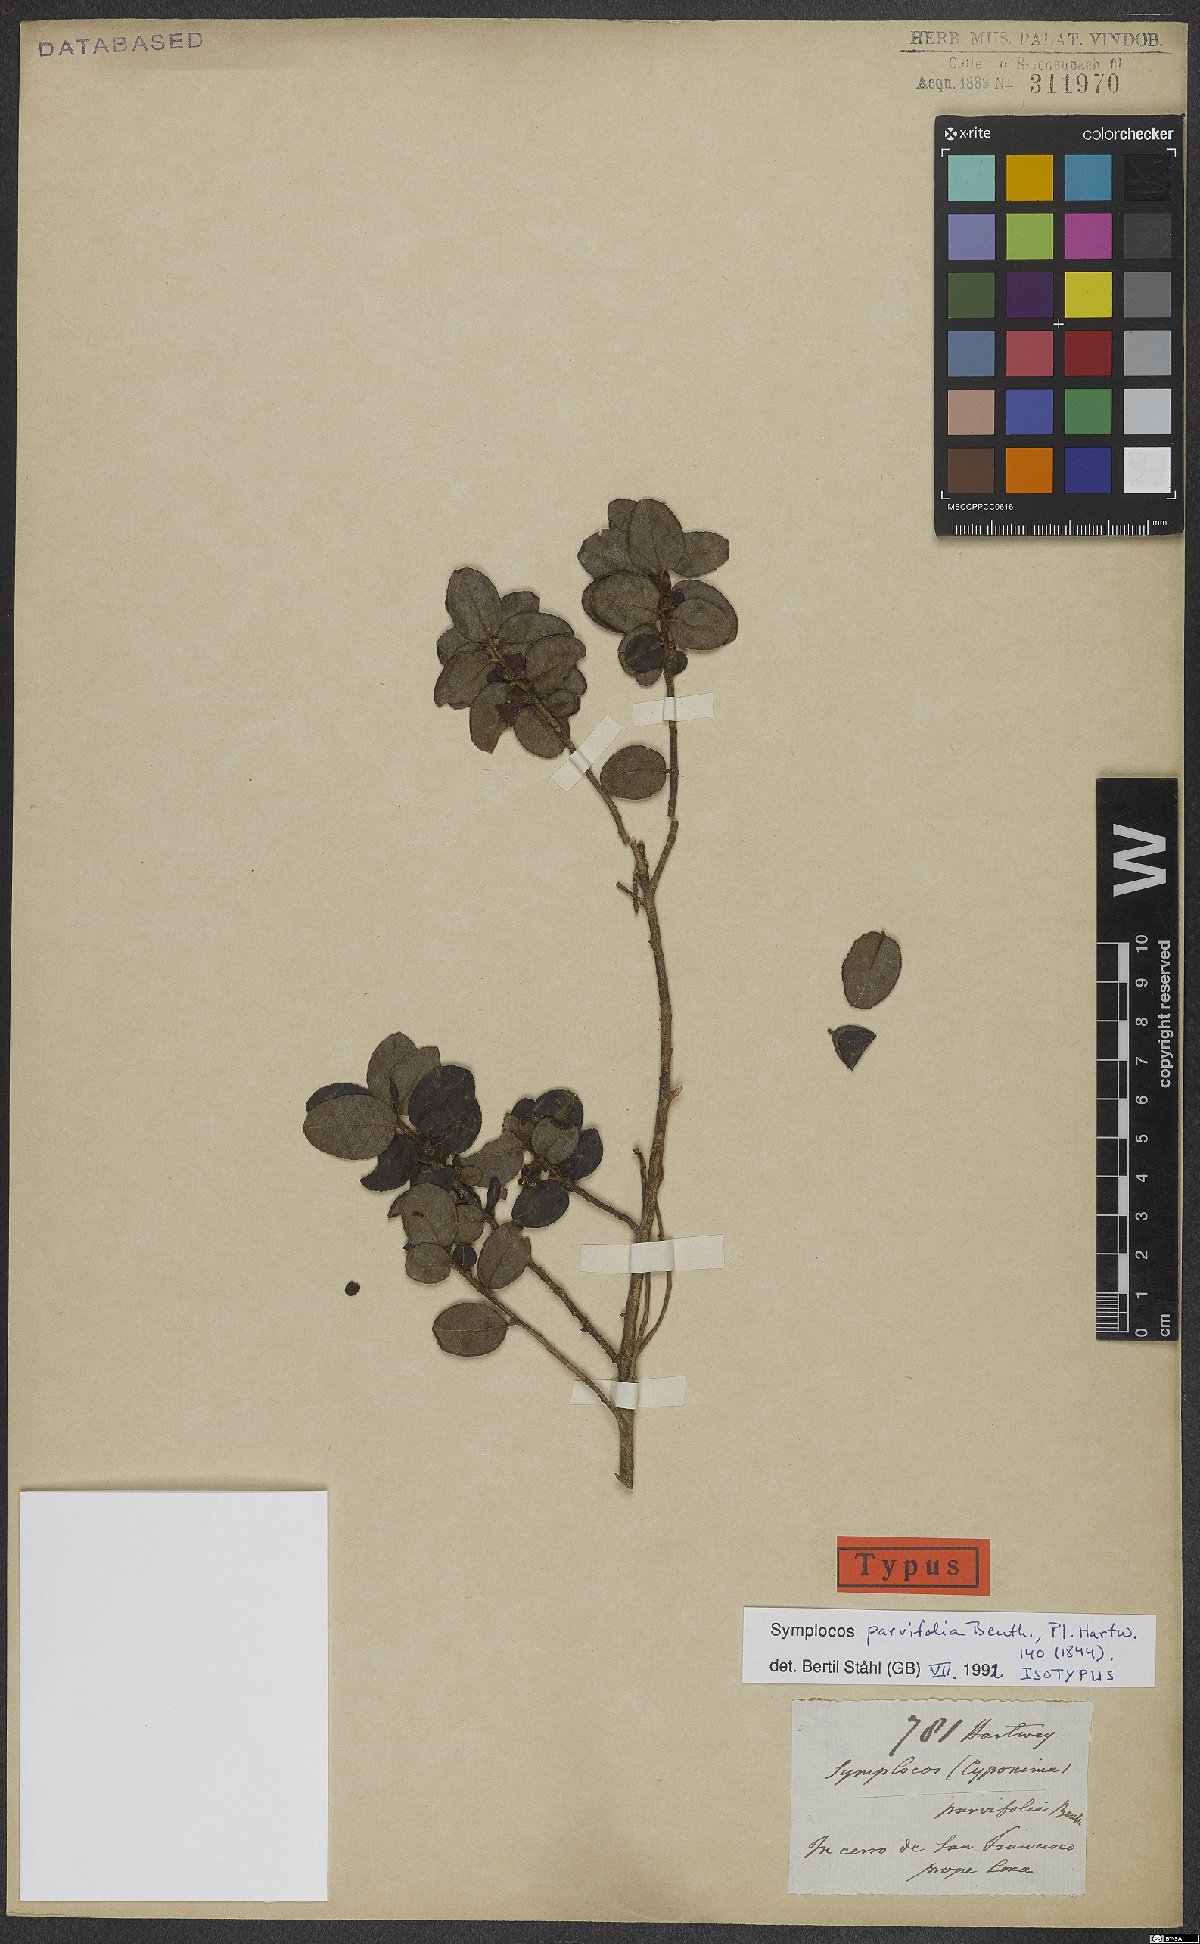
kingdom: Plantae
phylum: Tracheophyta
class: Magnoliopsida
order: Ericales
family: Symplocaceae
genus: Symplocos
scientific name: Symplocos parvifolia
